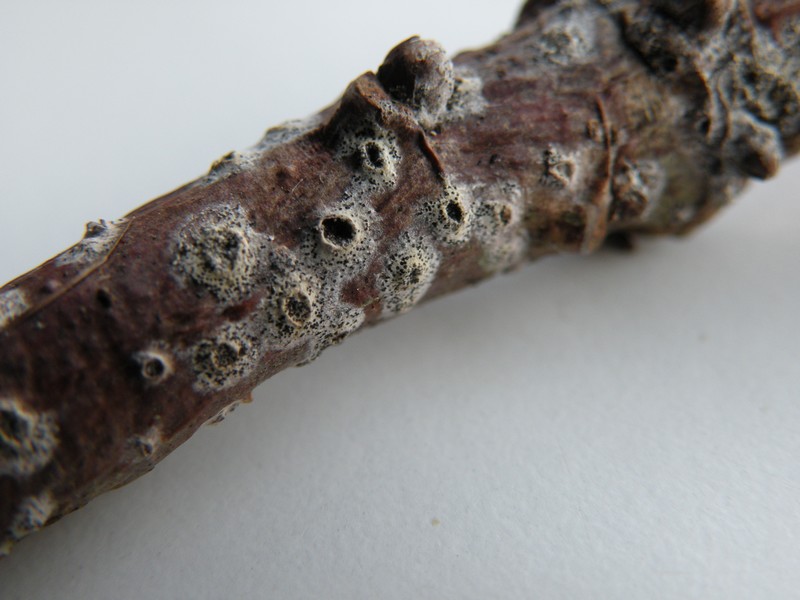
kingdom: Fungi
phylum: Ascomycota
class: Sordariomycetes
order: Hypocreales
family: Niessliaceae
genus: Niesslia
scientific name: Niesslia exilis
